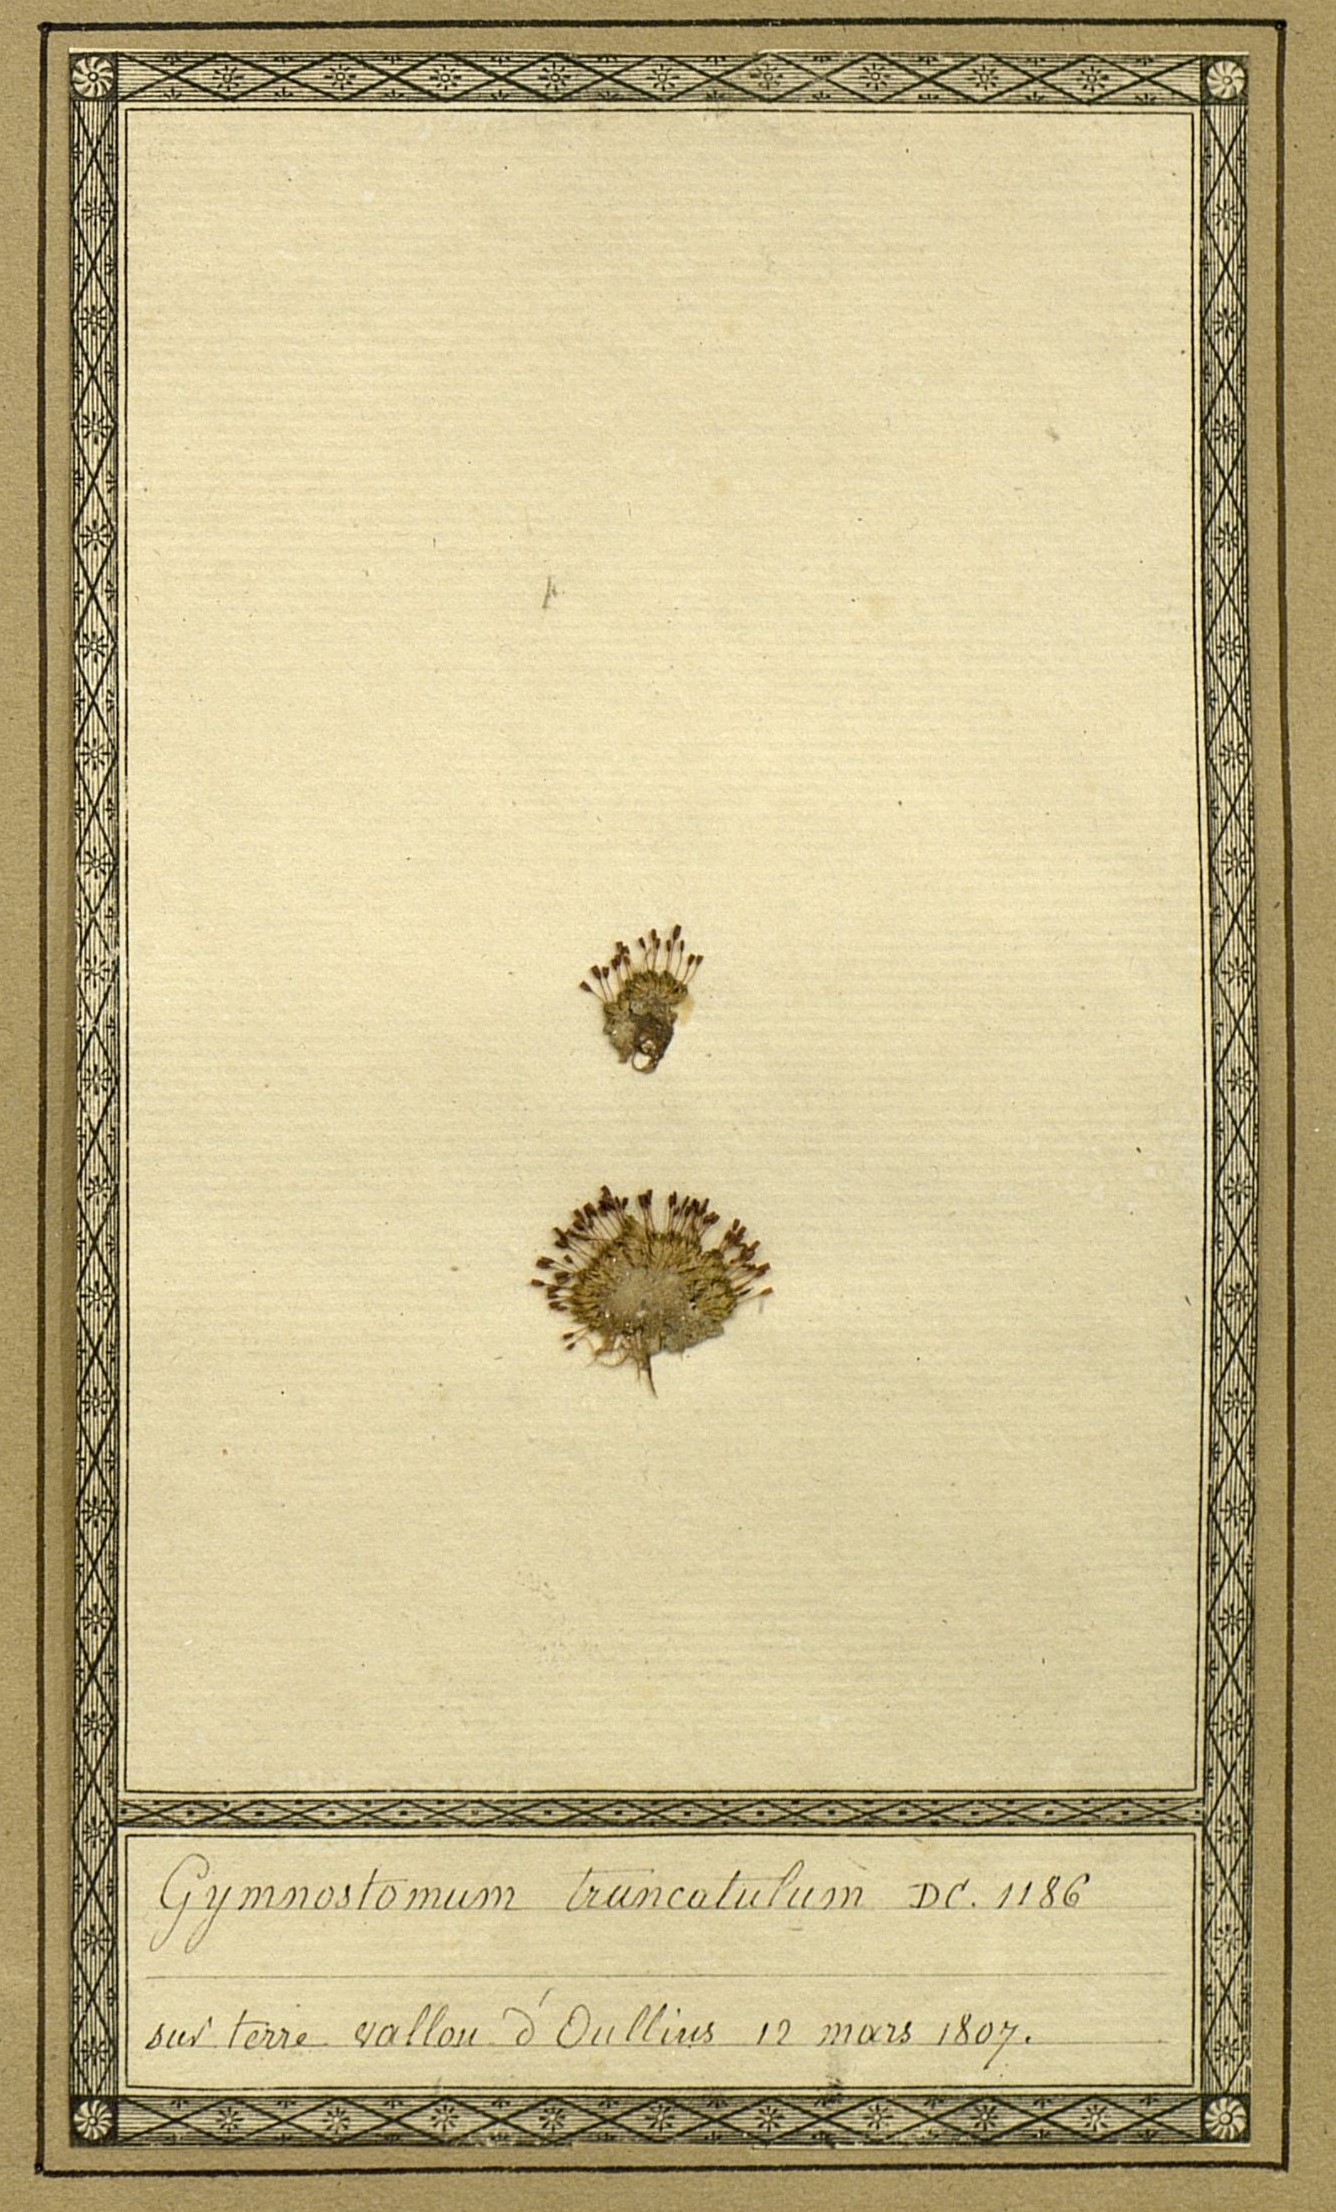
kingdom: Plantae
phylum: Bryophyta
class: Bryopsida
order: Pottiales
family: Pottiaceae
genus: Tortula
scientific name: Tortula truncata
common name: Truncated screw moss
